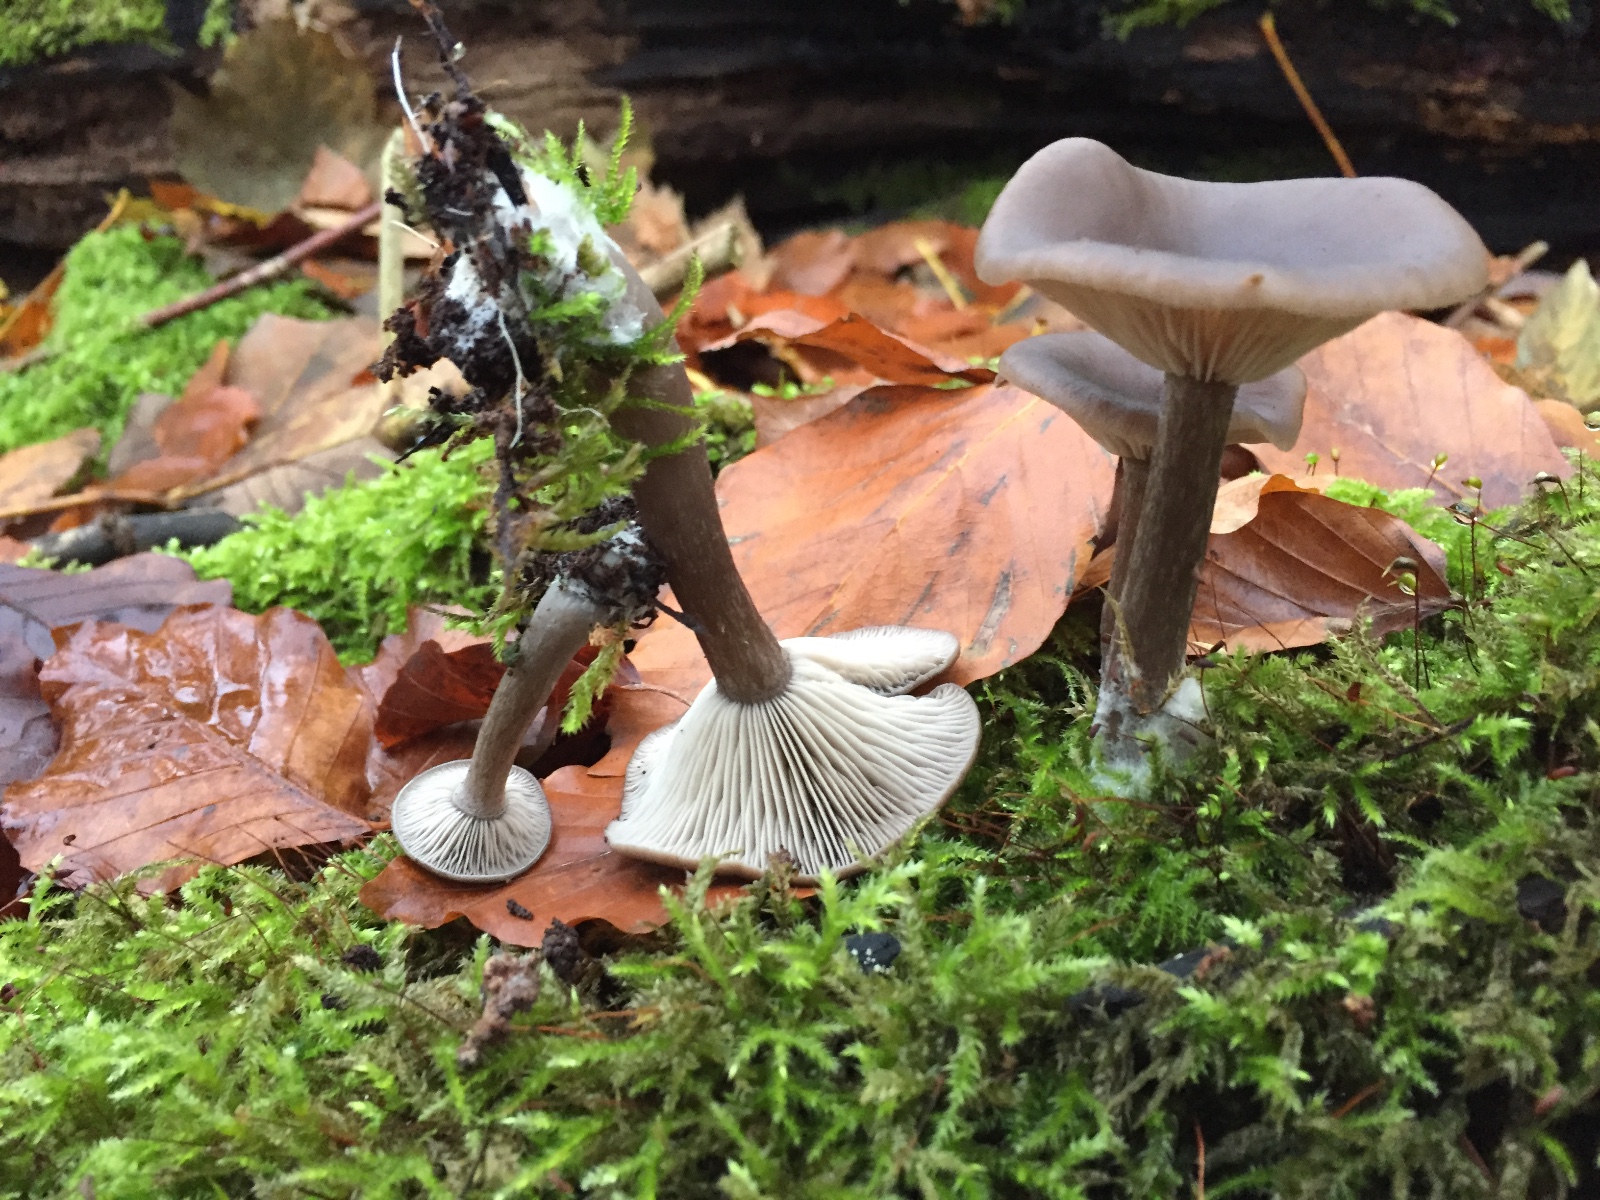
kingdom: Fungi
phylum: Basidiomycota
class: Agaricomycetes
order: Agaricales
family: Pseudoclitocybaceae
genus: Pseudoclitocybe
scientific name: Pseudoclitocybe cyathiformis
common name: almindelig bægertragthat
